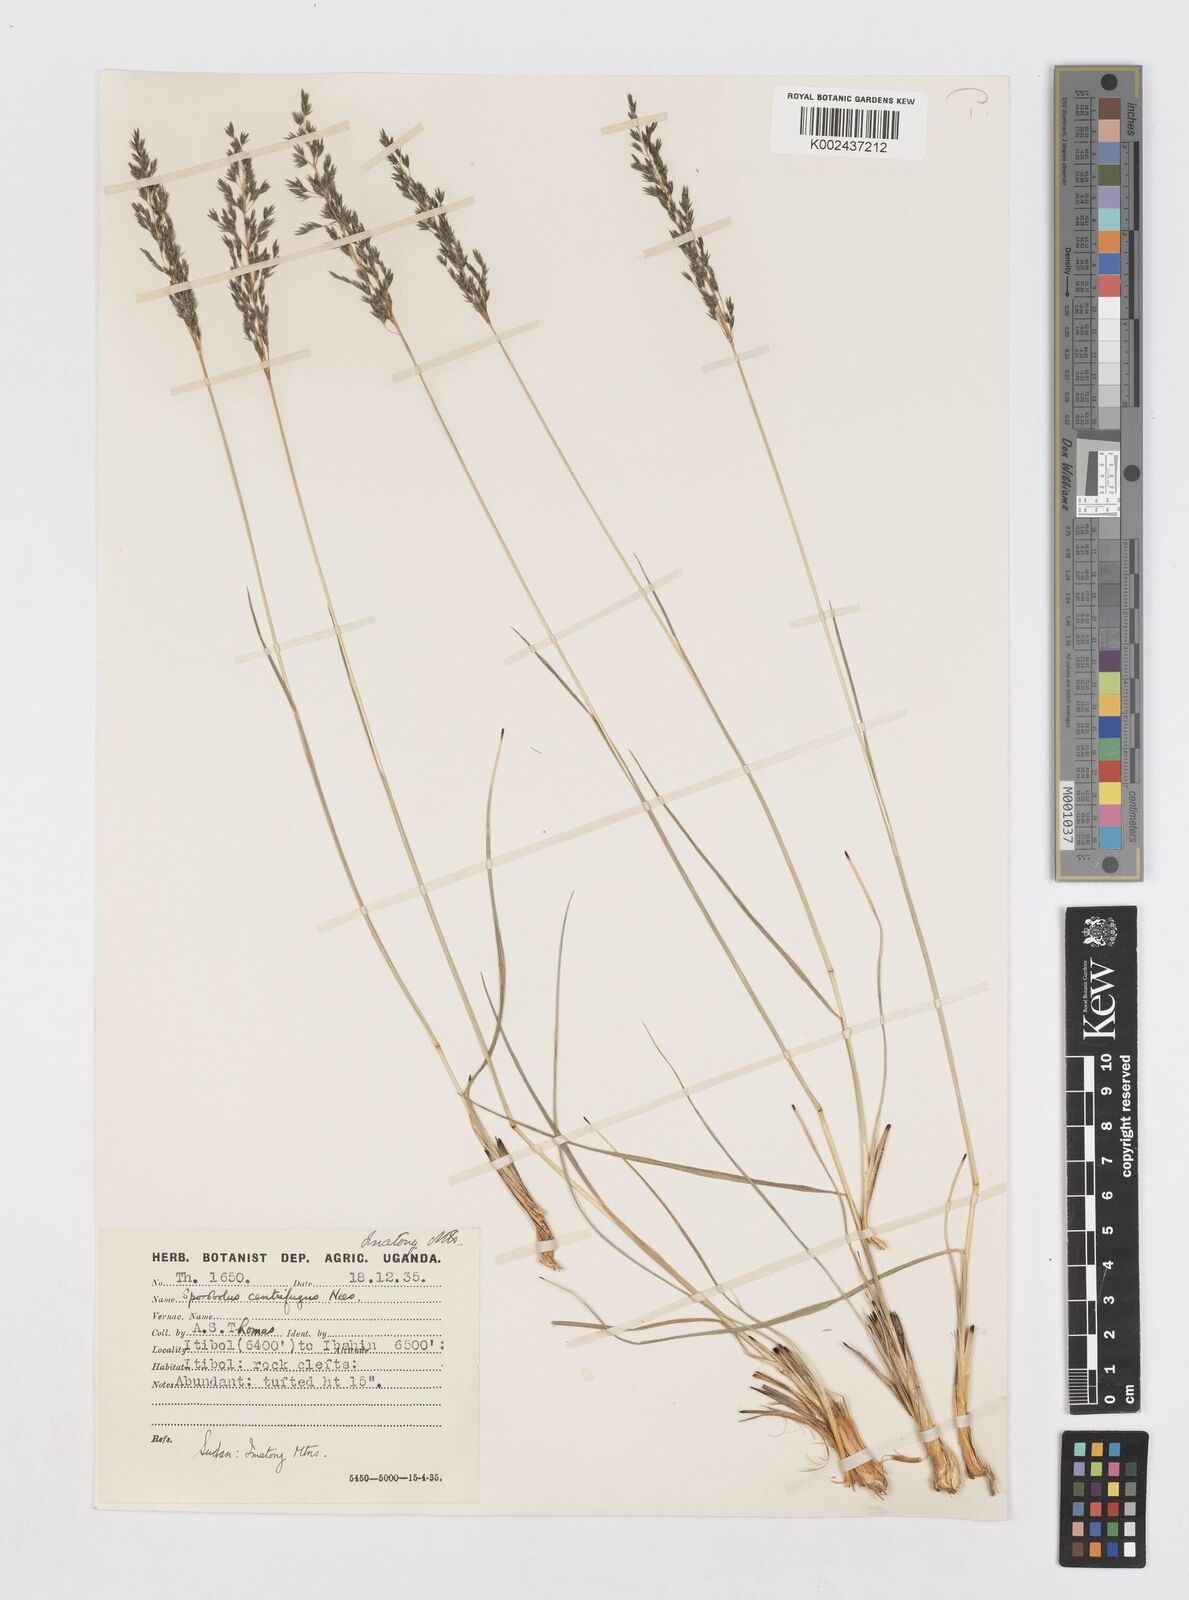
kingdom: Plantae
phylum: Tracheophyta
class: Liliopsida
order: Poales
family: Poaceae
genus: Sporobolus
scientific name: Sporobolus centrifugus
